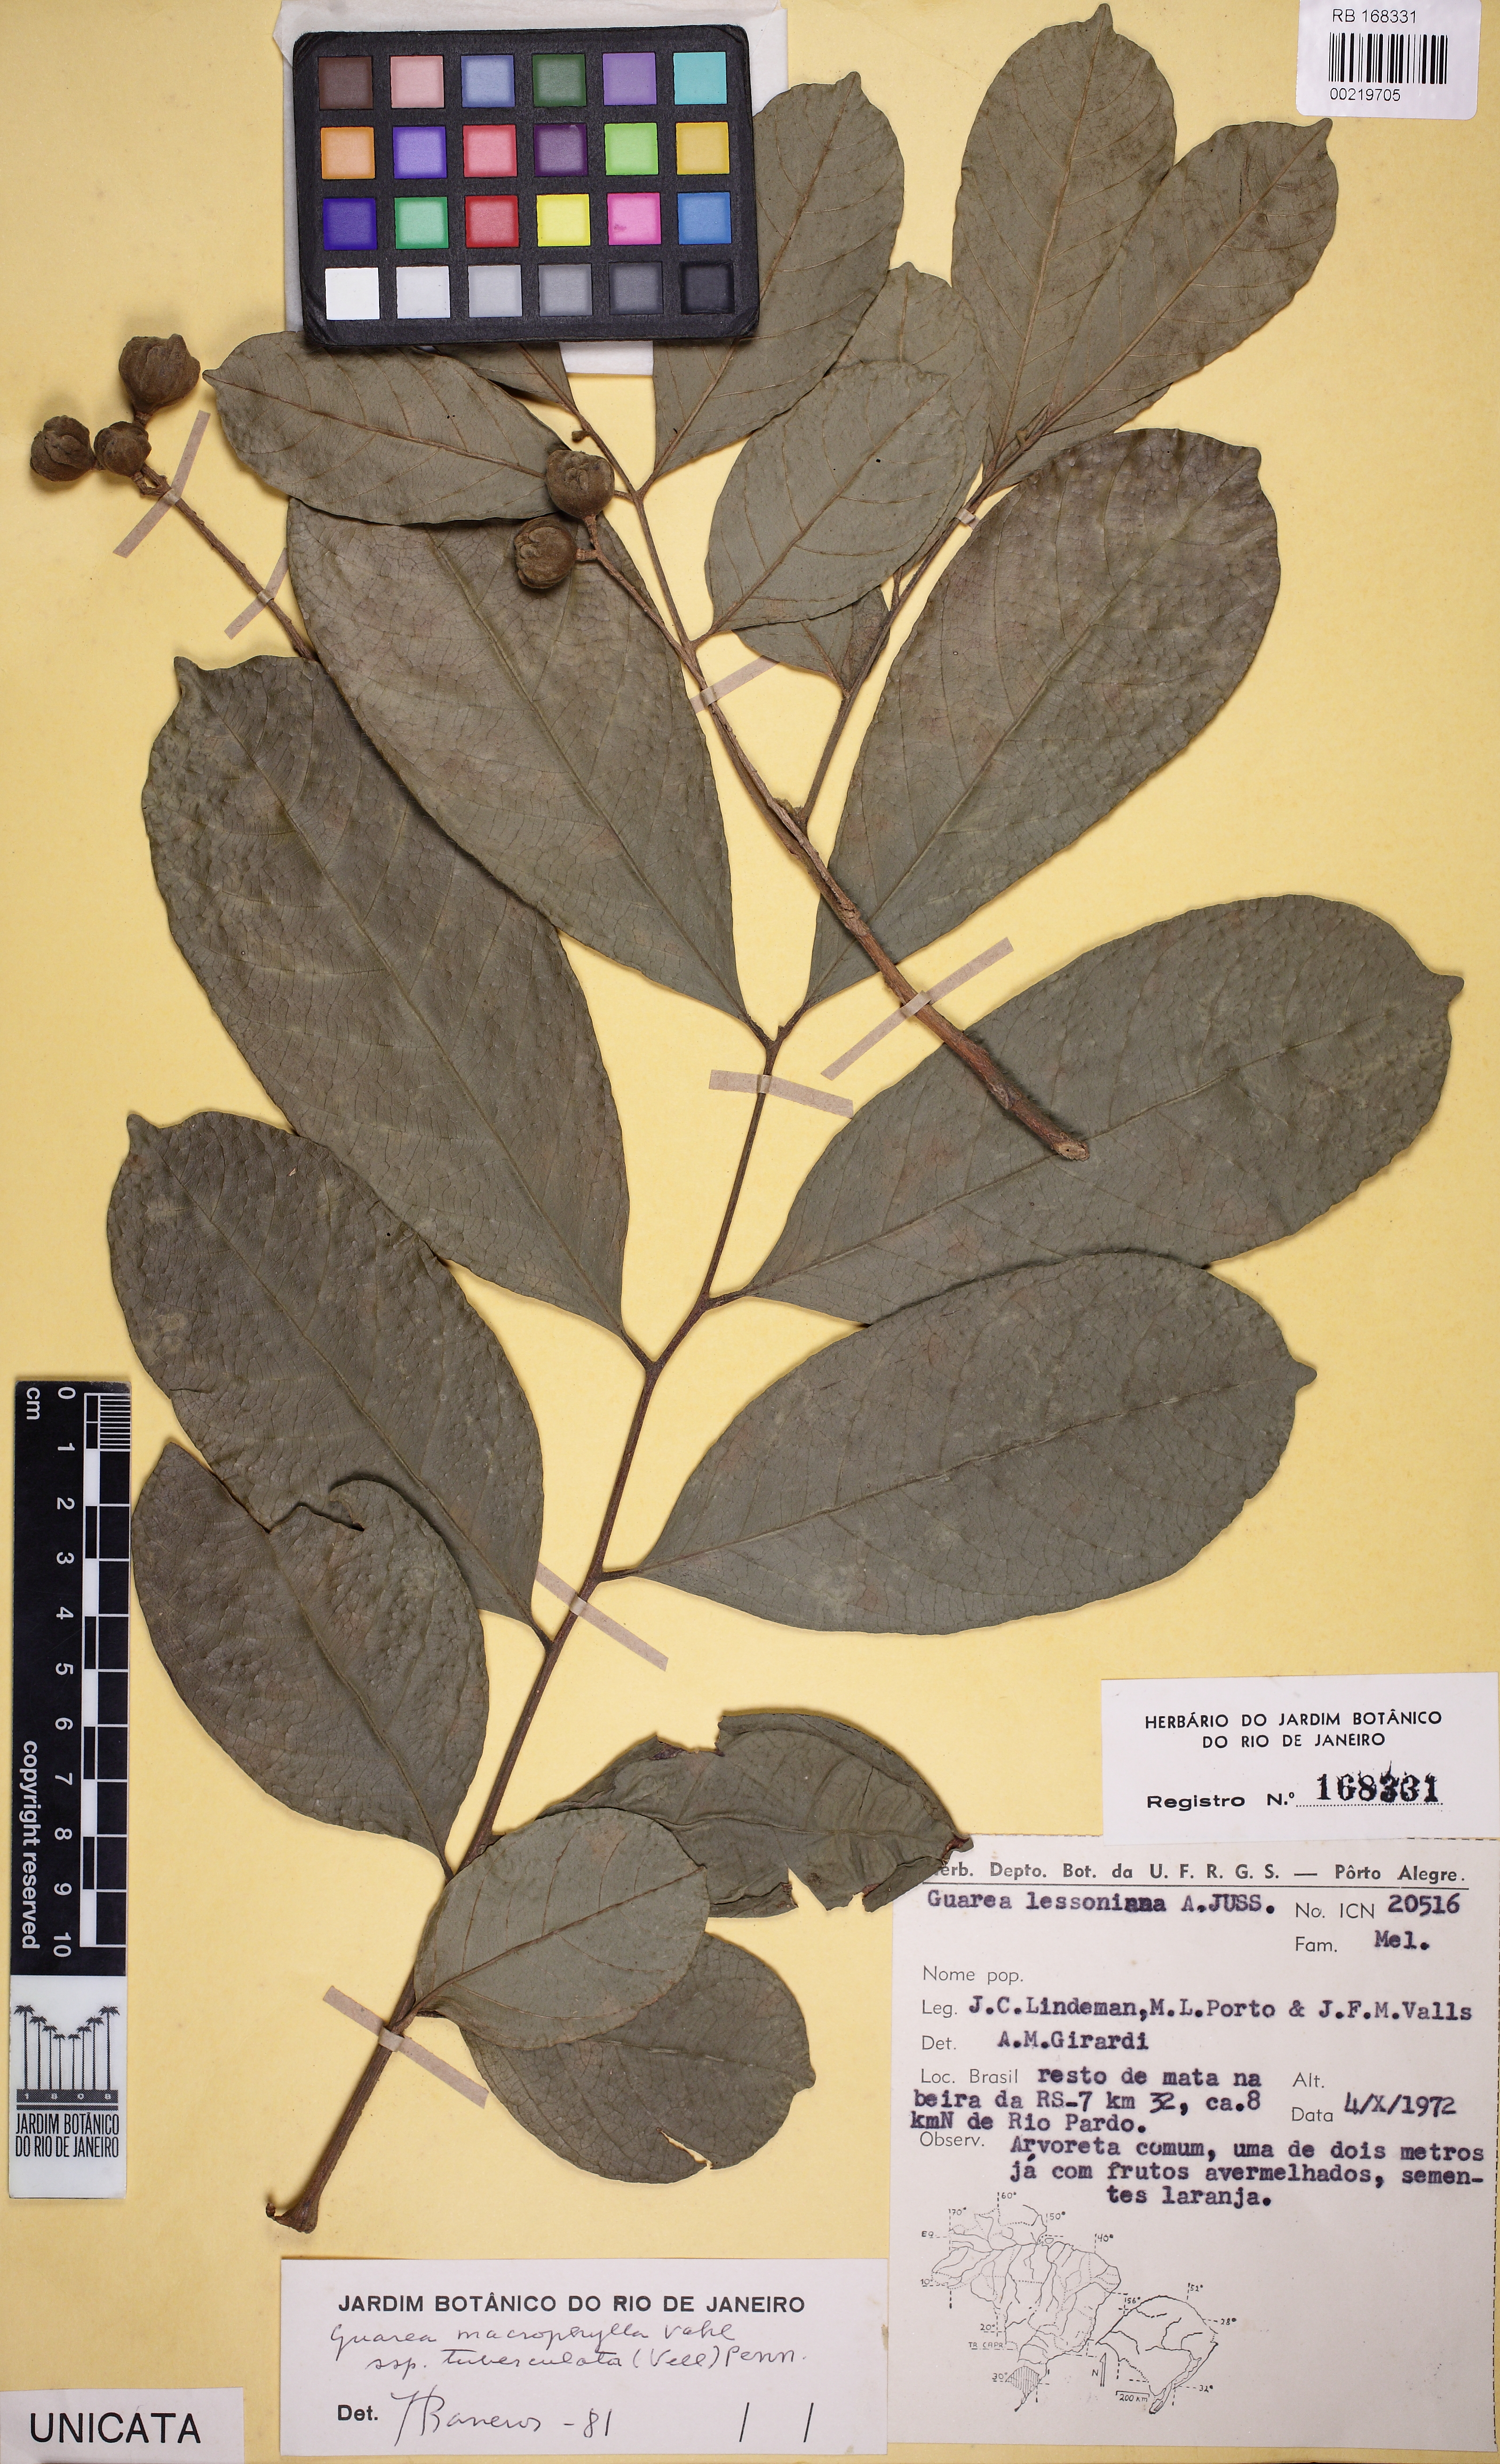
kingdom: Plantae
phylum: Tracheophyta
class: Magnoliopsida
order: Sapindales
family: Meliaceae
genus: Guarea
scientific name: Guarea macrophylla
